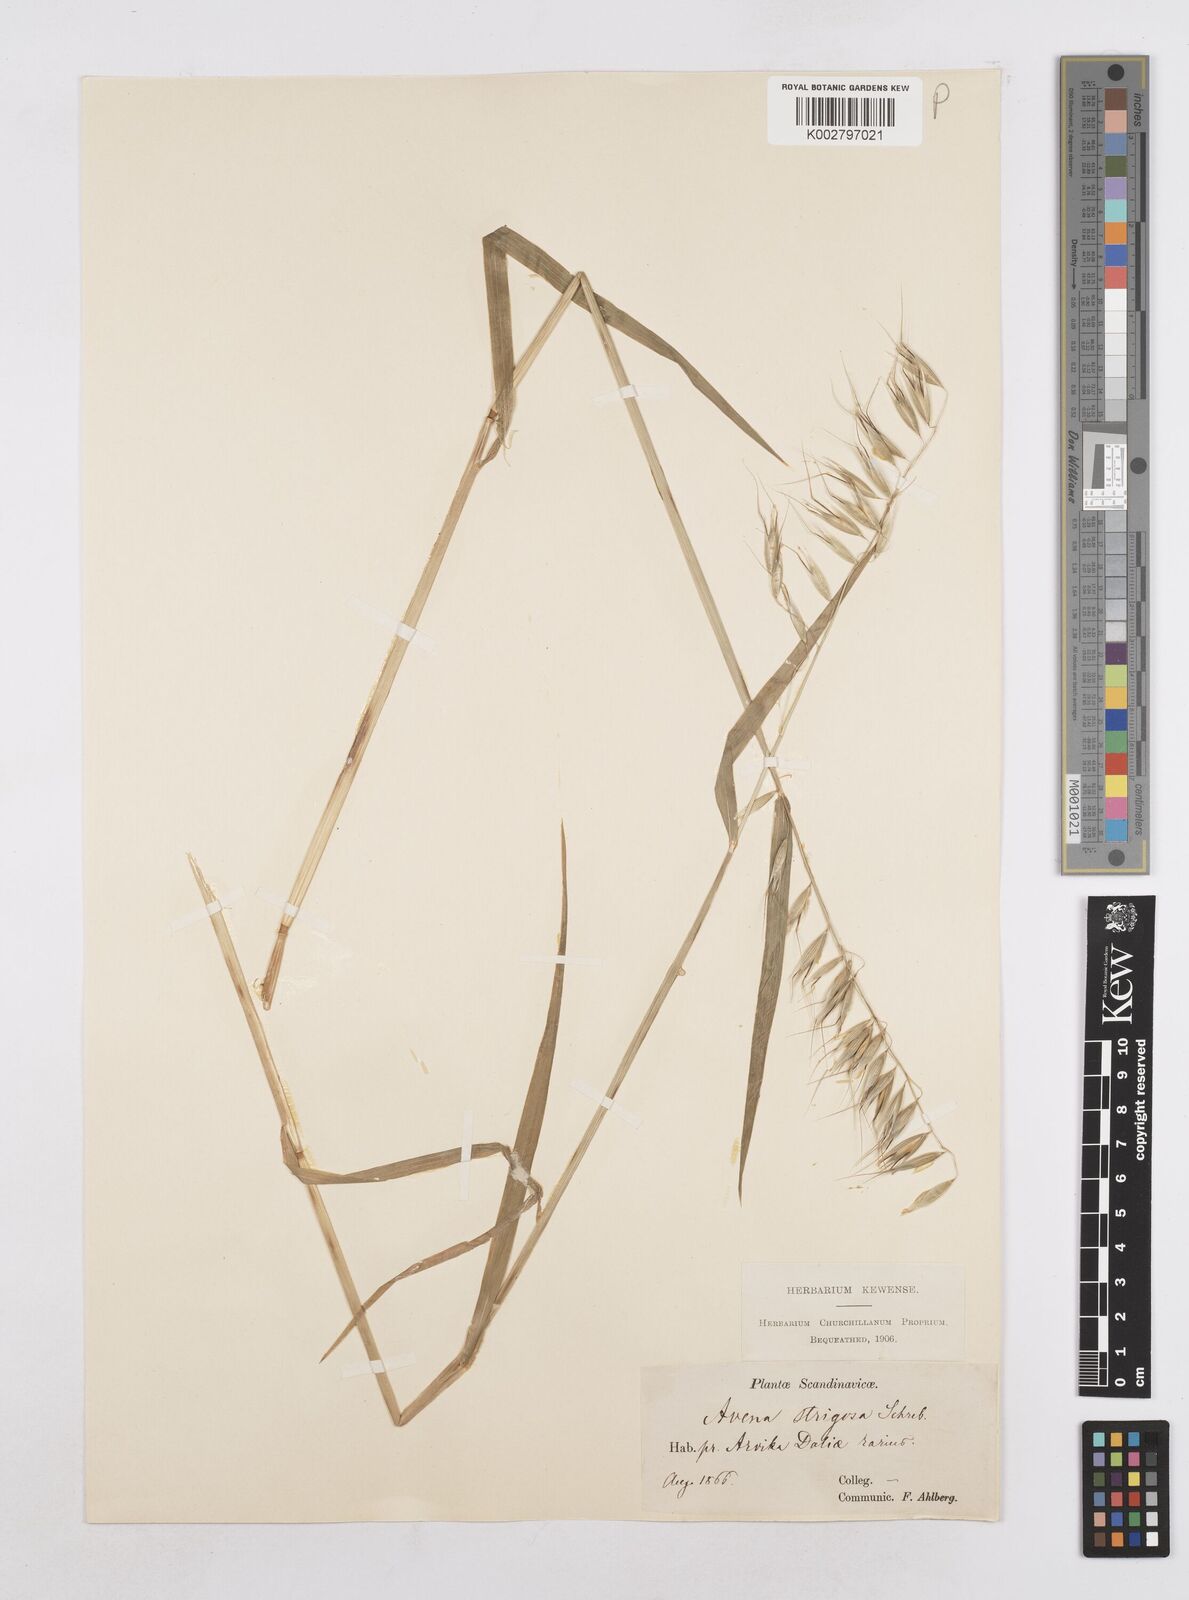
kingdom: Plantae
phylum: Tracheophyta
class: Liliopsida
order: Poales
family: Poaceae
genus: Avena
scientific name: Avena strigosa
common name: Bristle oat
